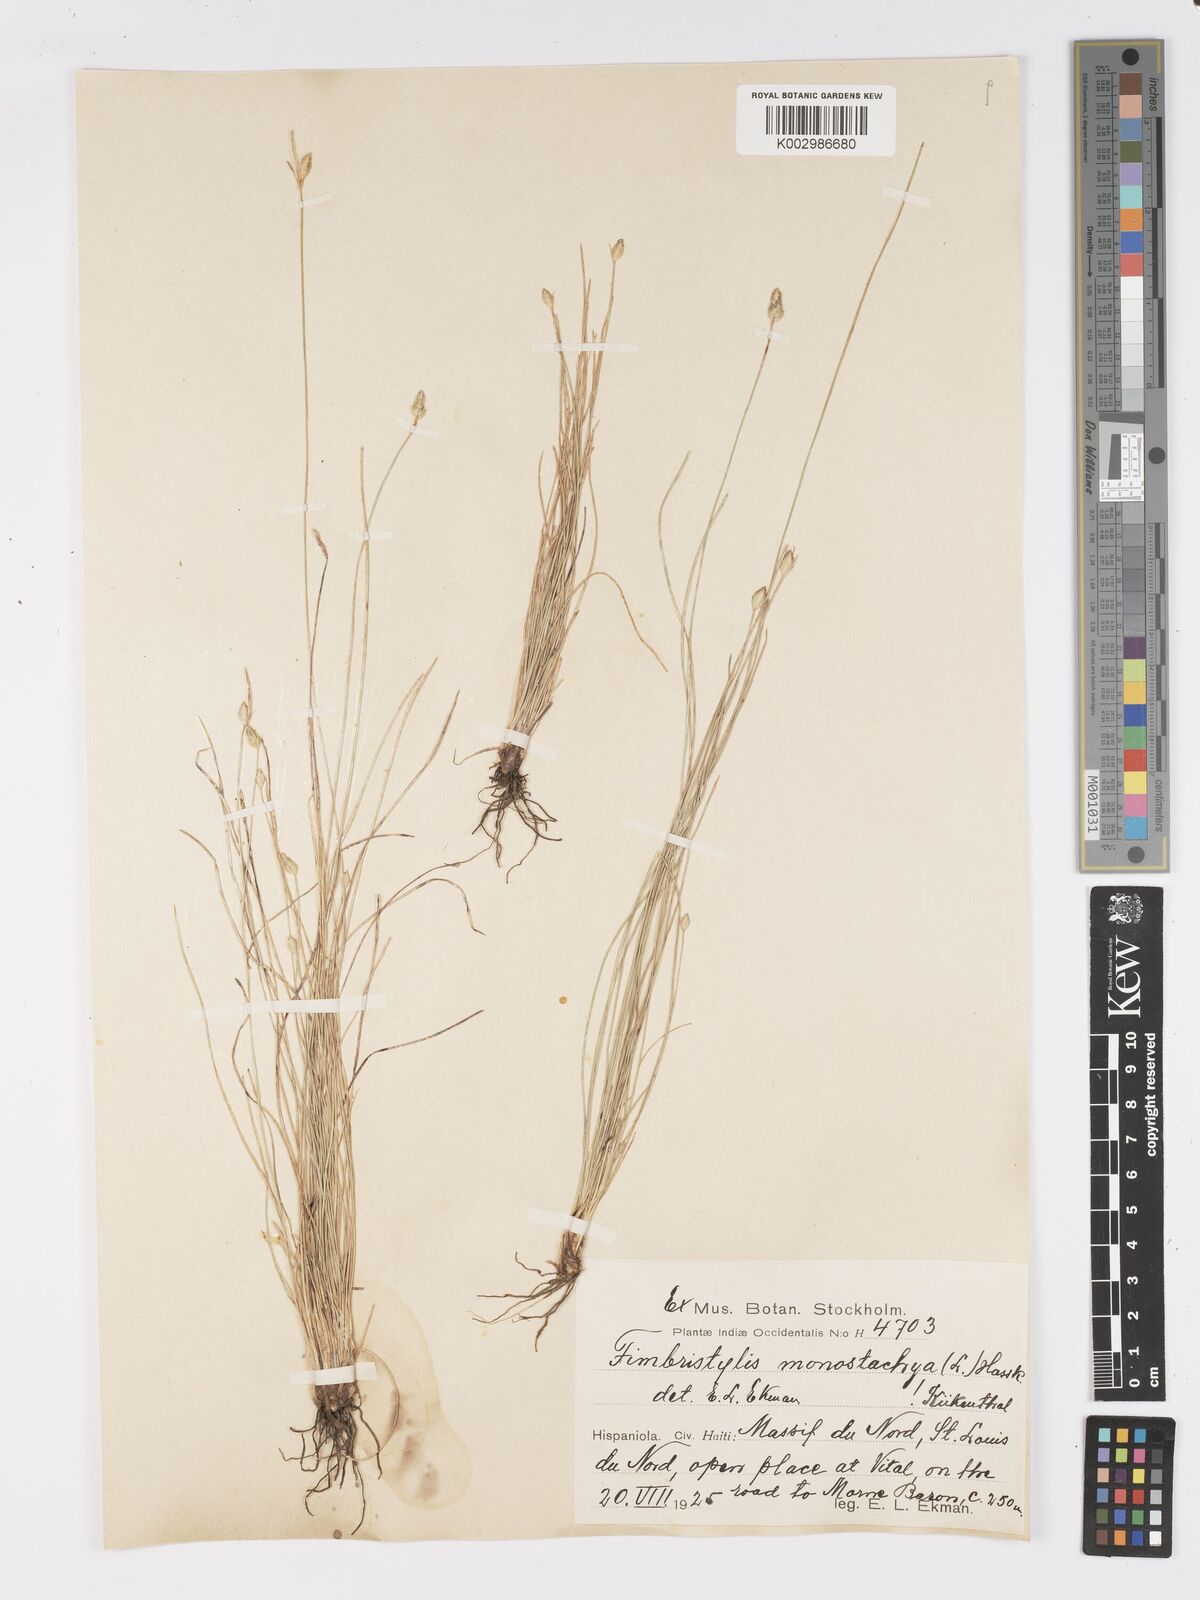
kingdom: Plantae
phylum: Tracheophyta
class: Liliopsida
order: Poales
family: Cyperaceae
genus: Abildgaardia
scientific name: Abildgaardia ovata
